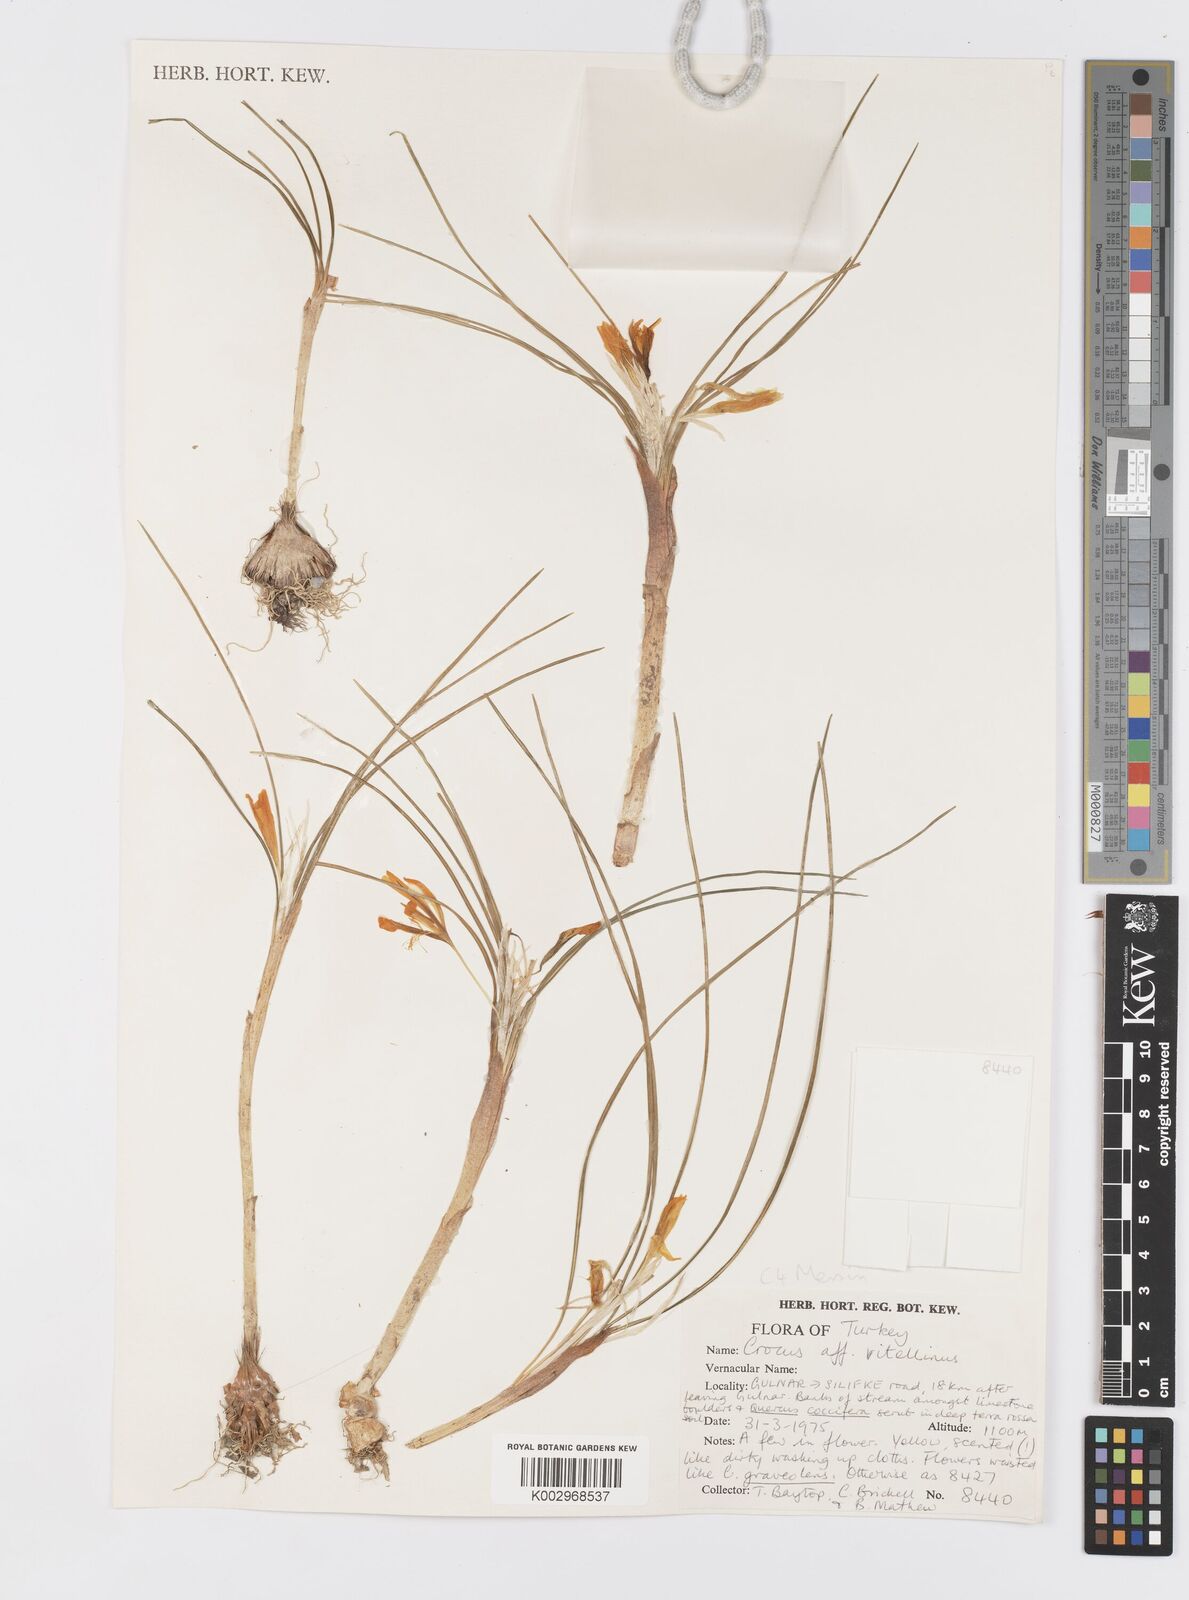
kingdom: Plantae
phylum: Tracheophyta
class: Liliopsida
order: Asparagales
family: Iridaceae
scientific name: Iridaceae
